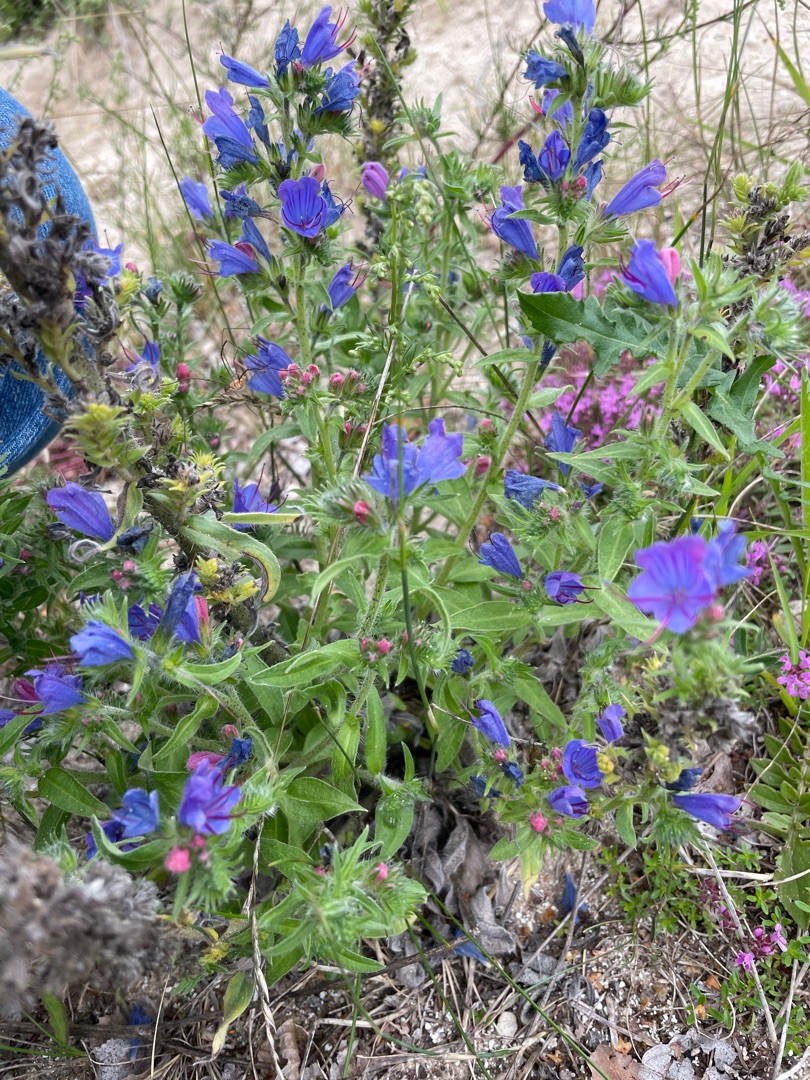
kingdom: Plantae
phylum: Tracheophyta
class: Magnoliopsida
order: Boraginales
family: Boraginaceae
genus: Echium
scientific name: Echium vulgare
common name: Slangehoved
